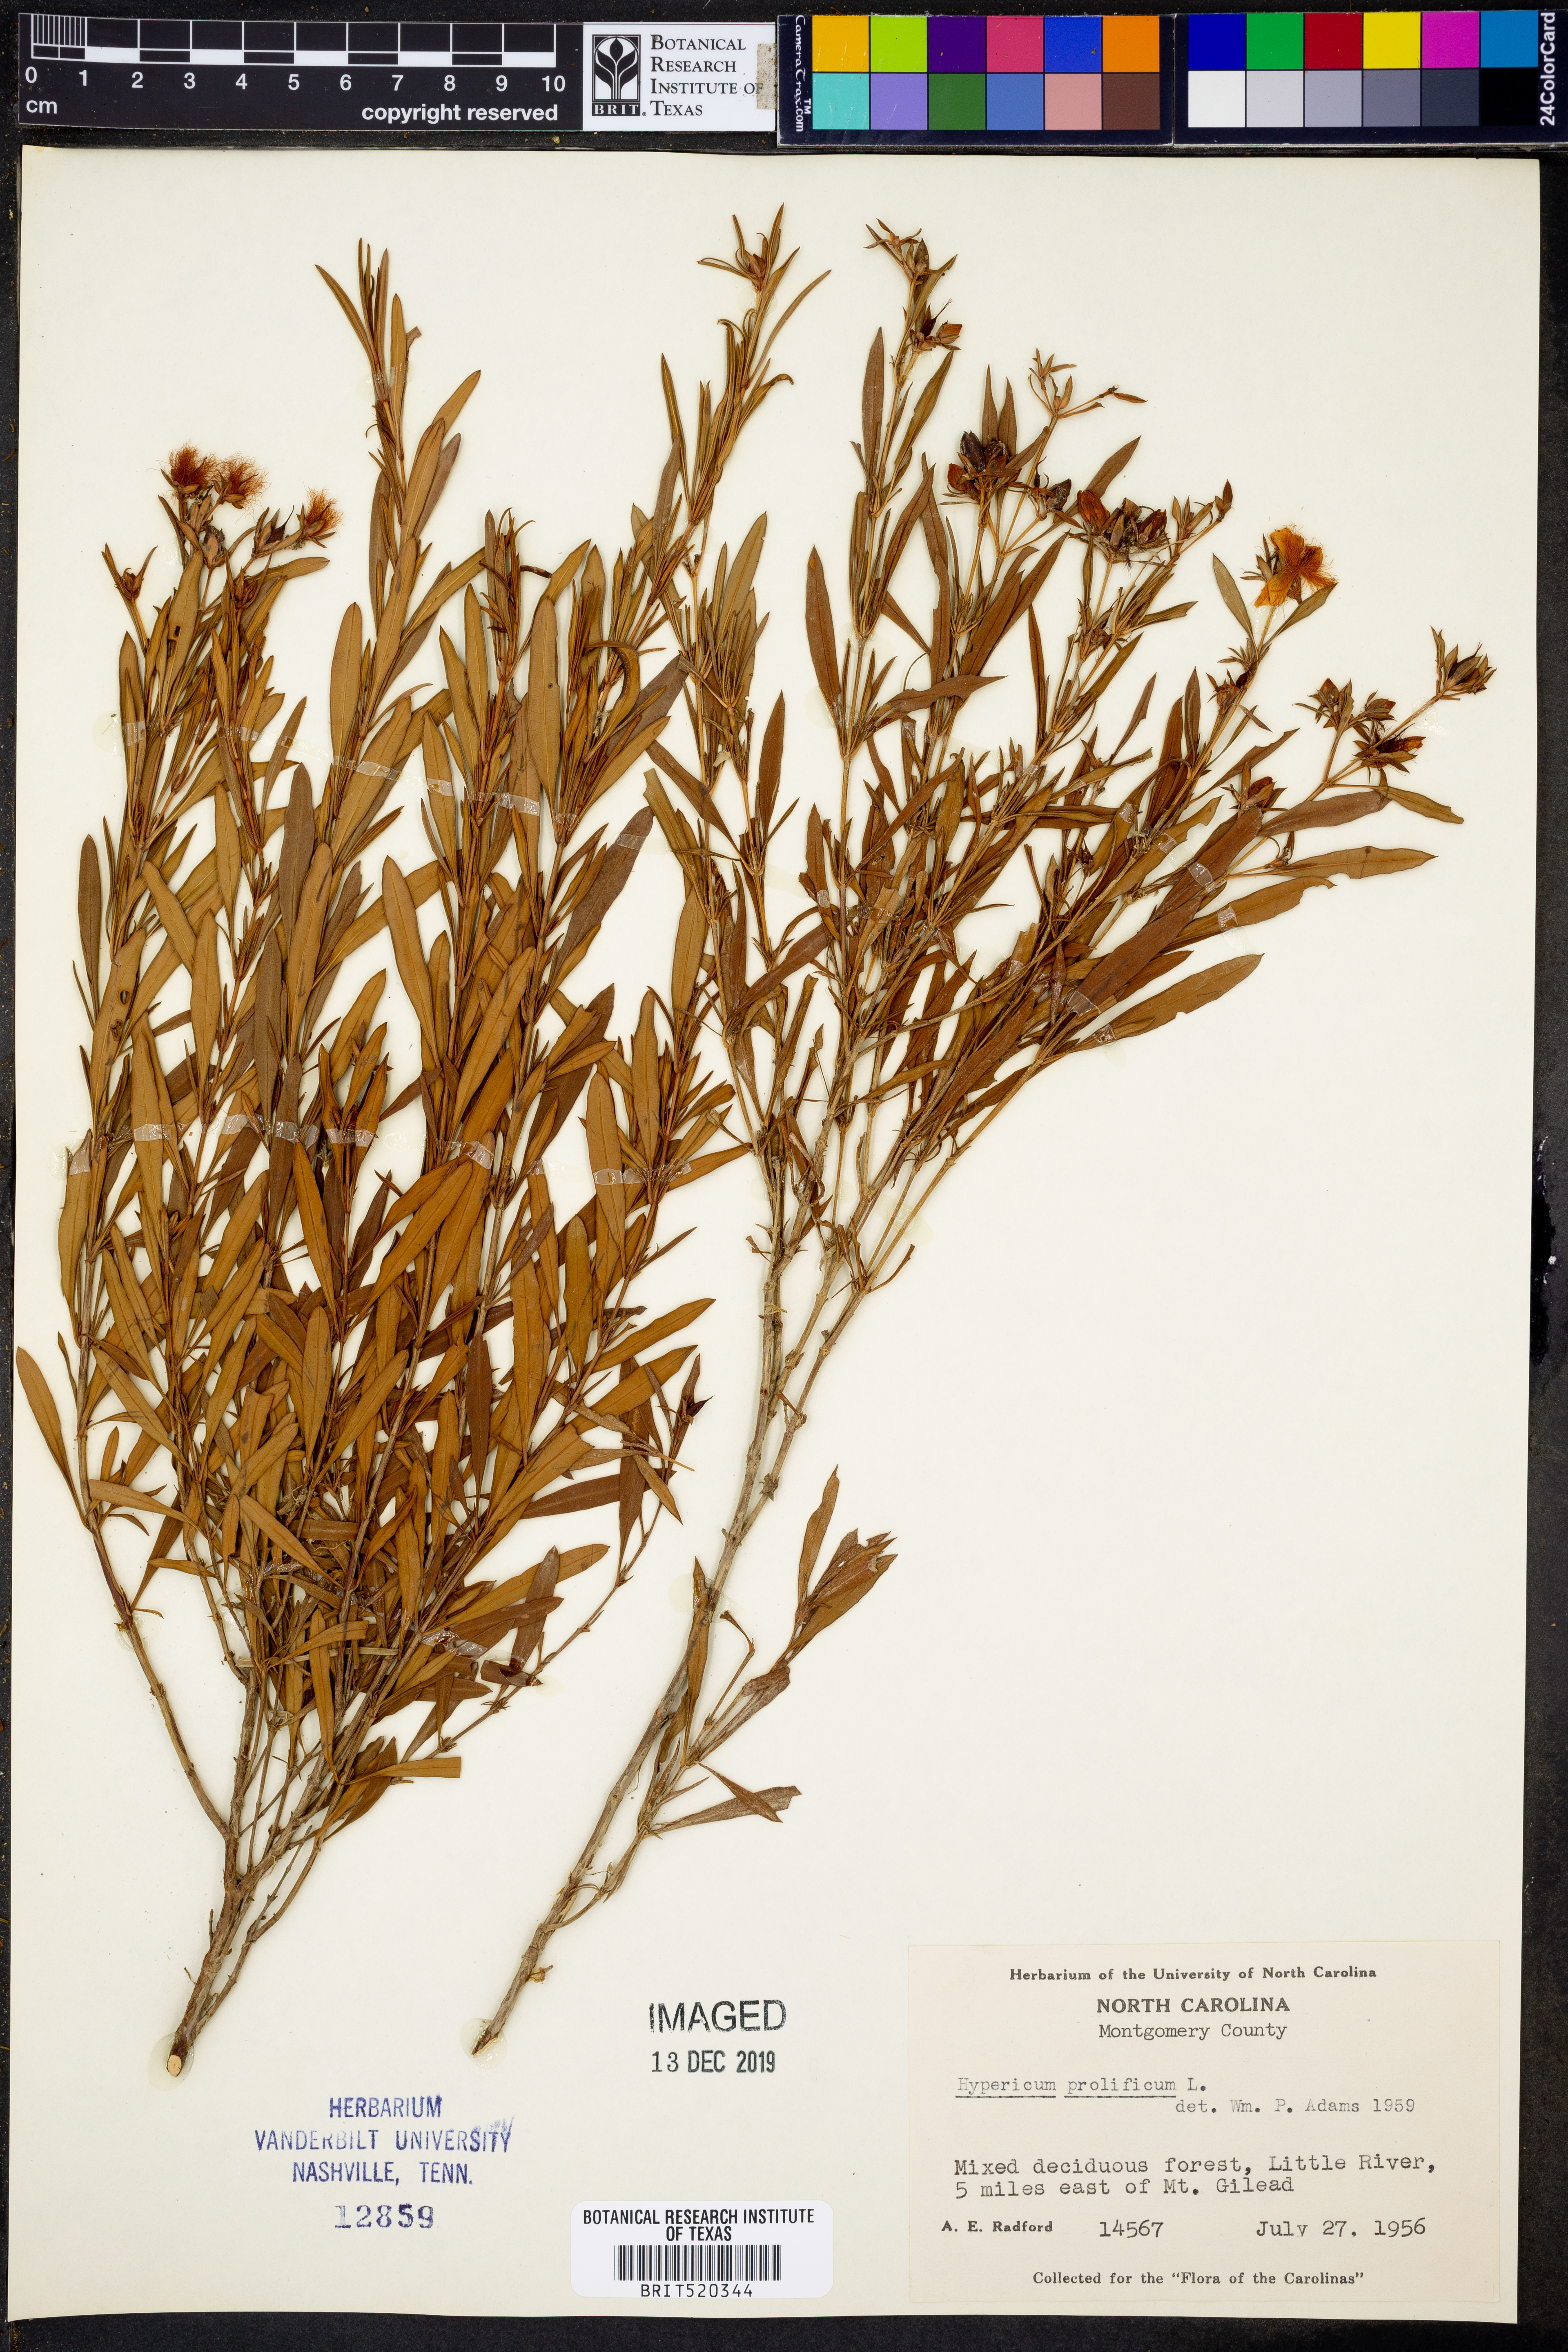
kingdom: Plantae
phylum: Tracheophyta
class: Magnoliopsida
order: Malpighiales
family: Hypericaceae
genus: Hypericum
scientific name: Hypericum prolificum
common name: Shrubby st. john's-wort
